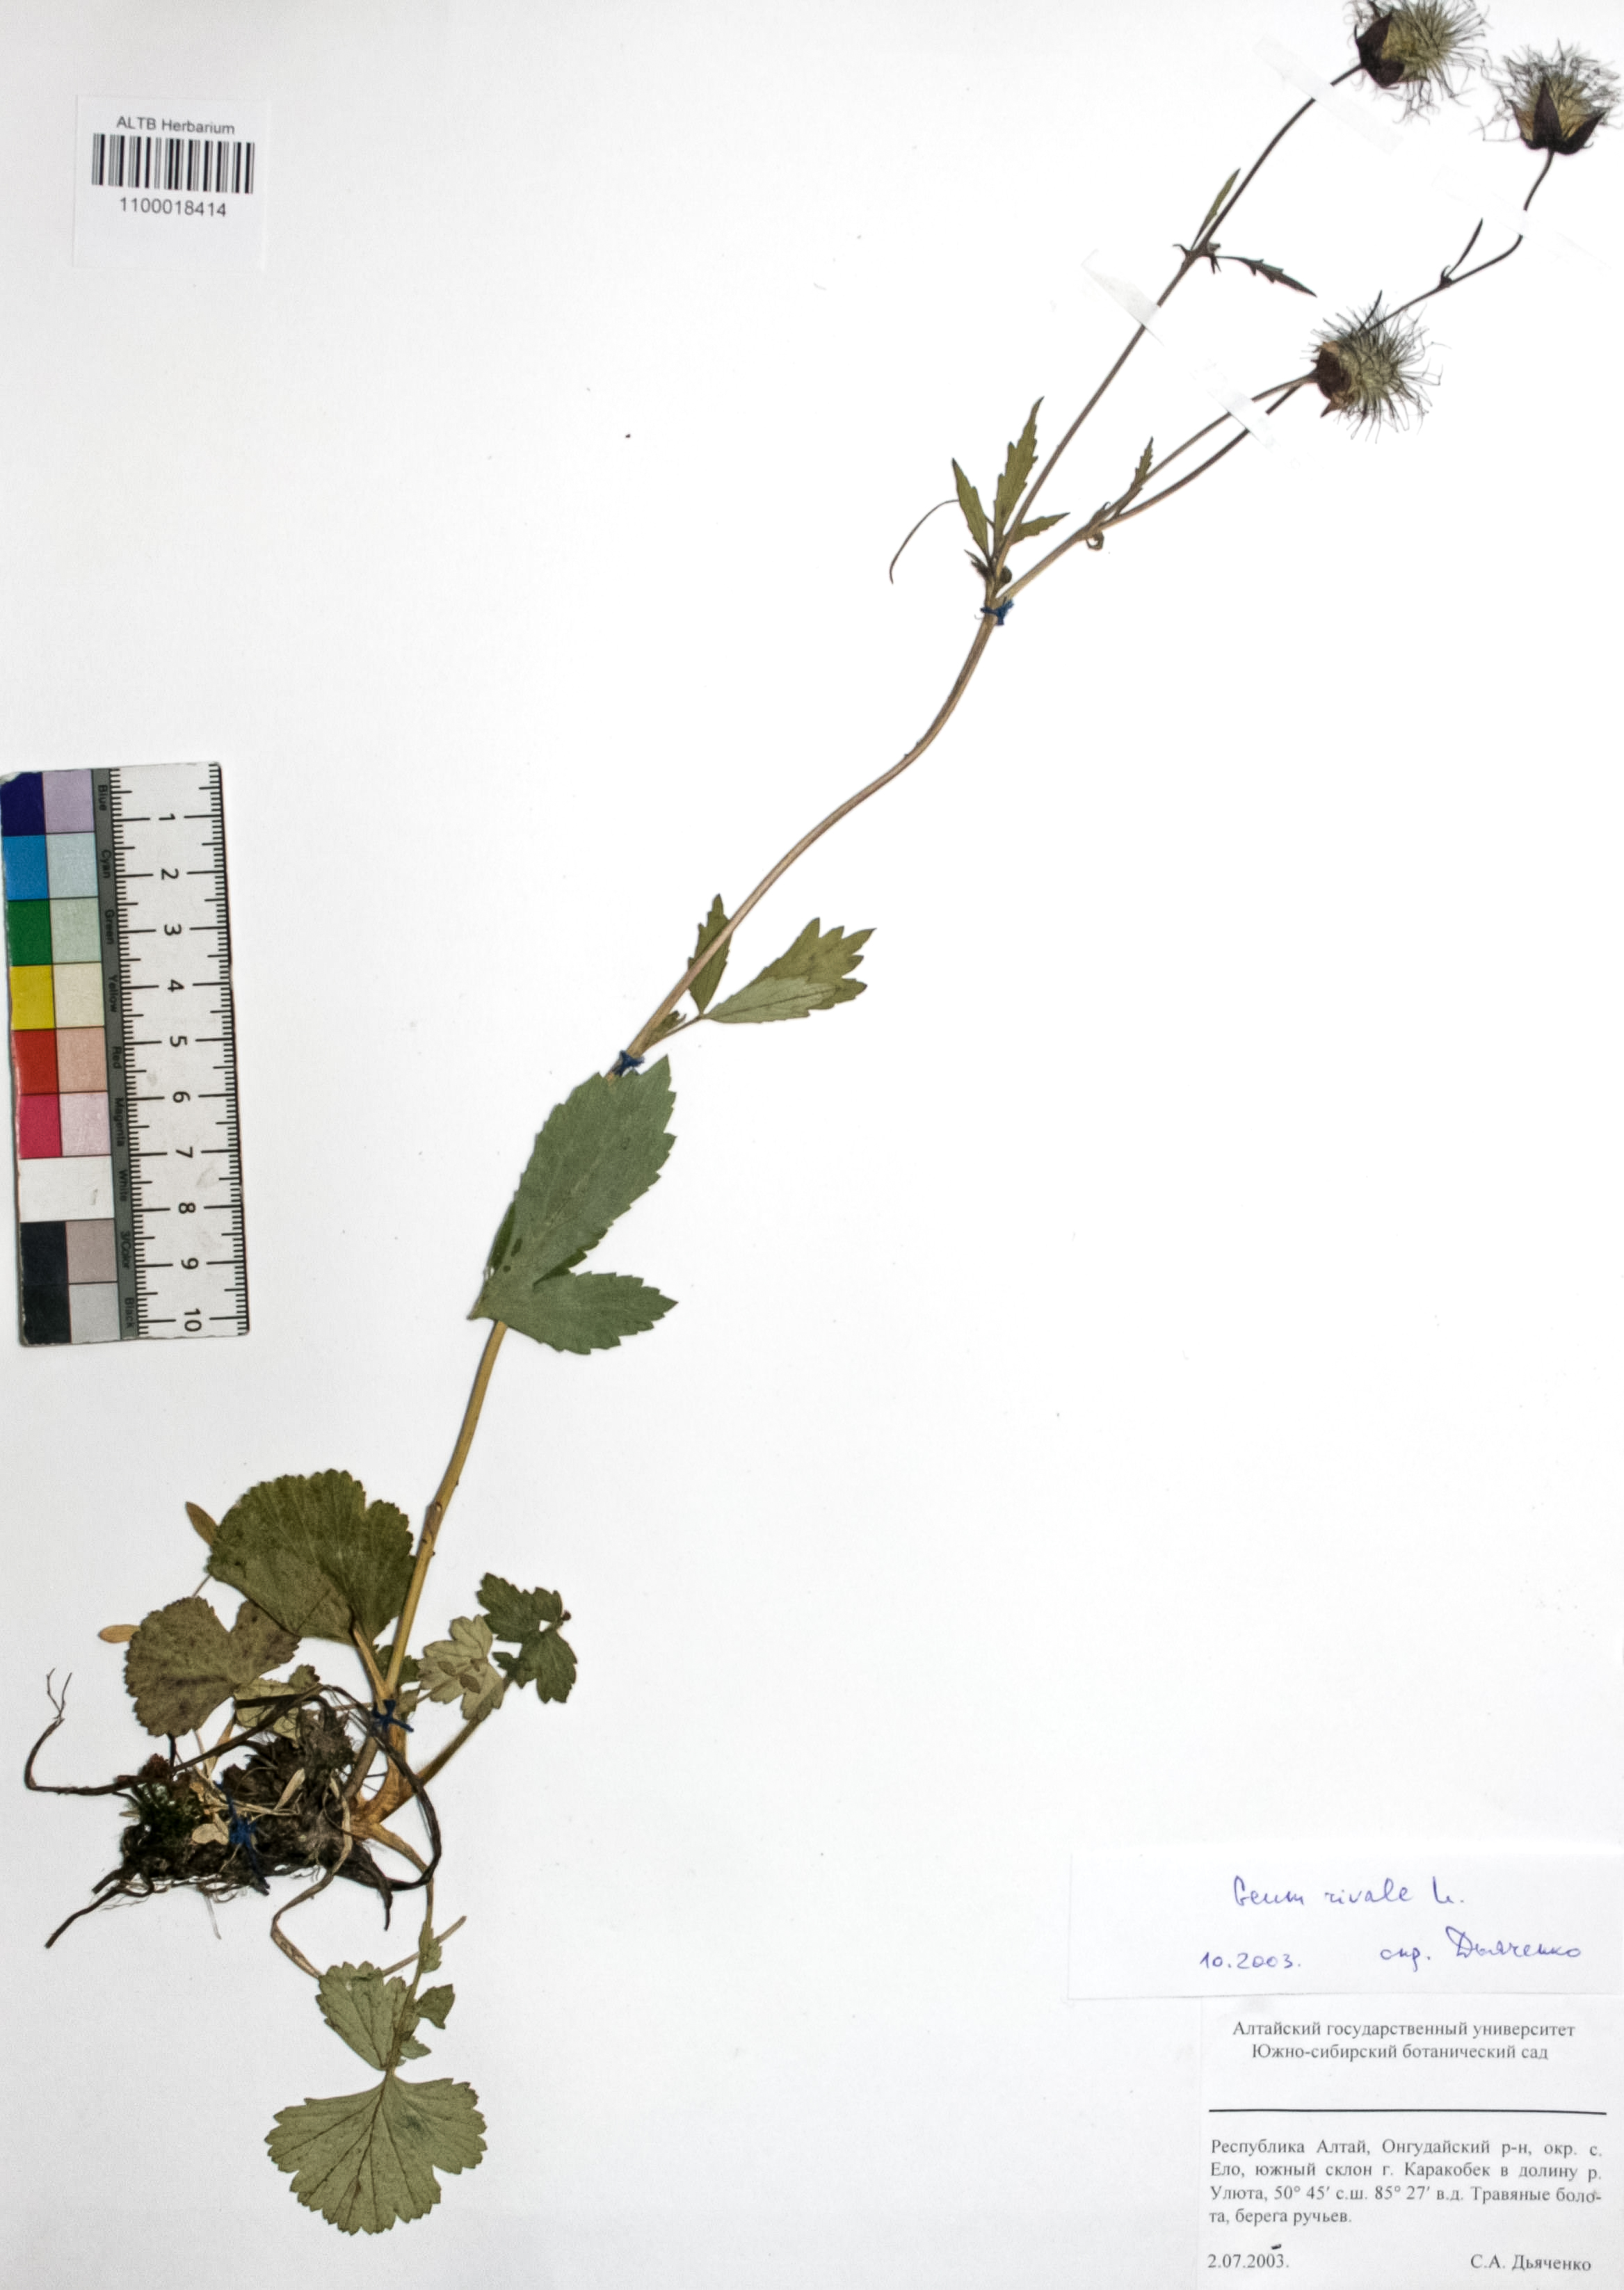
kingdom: Plantae
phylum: Tracheophyta
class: Magnoliopsida
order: Rosales
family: Rosaceae
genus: Geum
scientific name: Geum rivale
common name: Water avens
